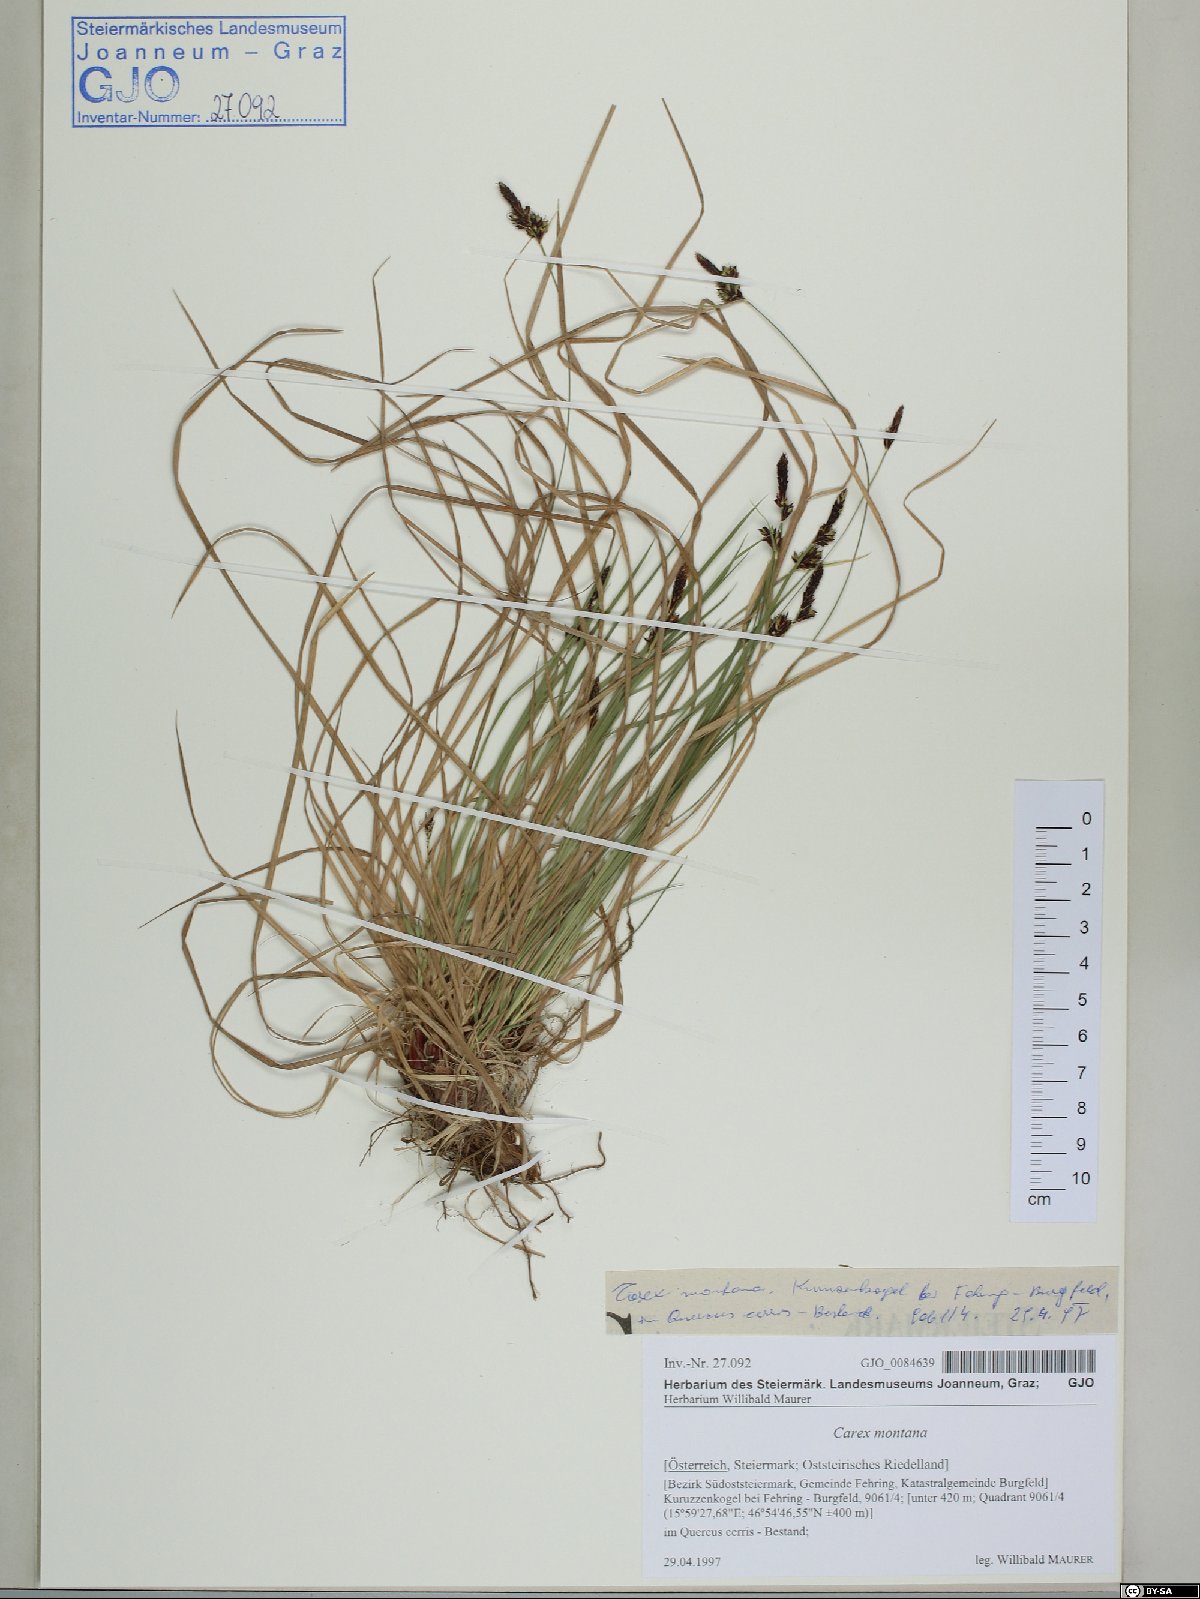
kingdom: Plantae
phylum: Tracheophyta
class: Liliopsida
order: Poales
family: Cyperaceae
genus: Carex
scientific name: Carex montana
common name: Soft-leaved sedge
